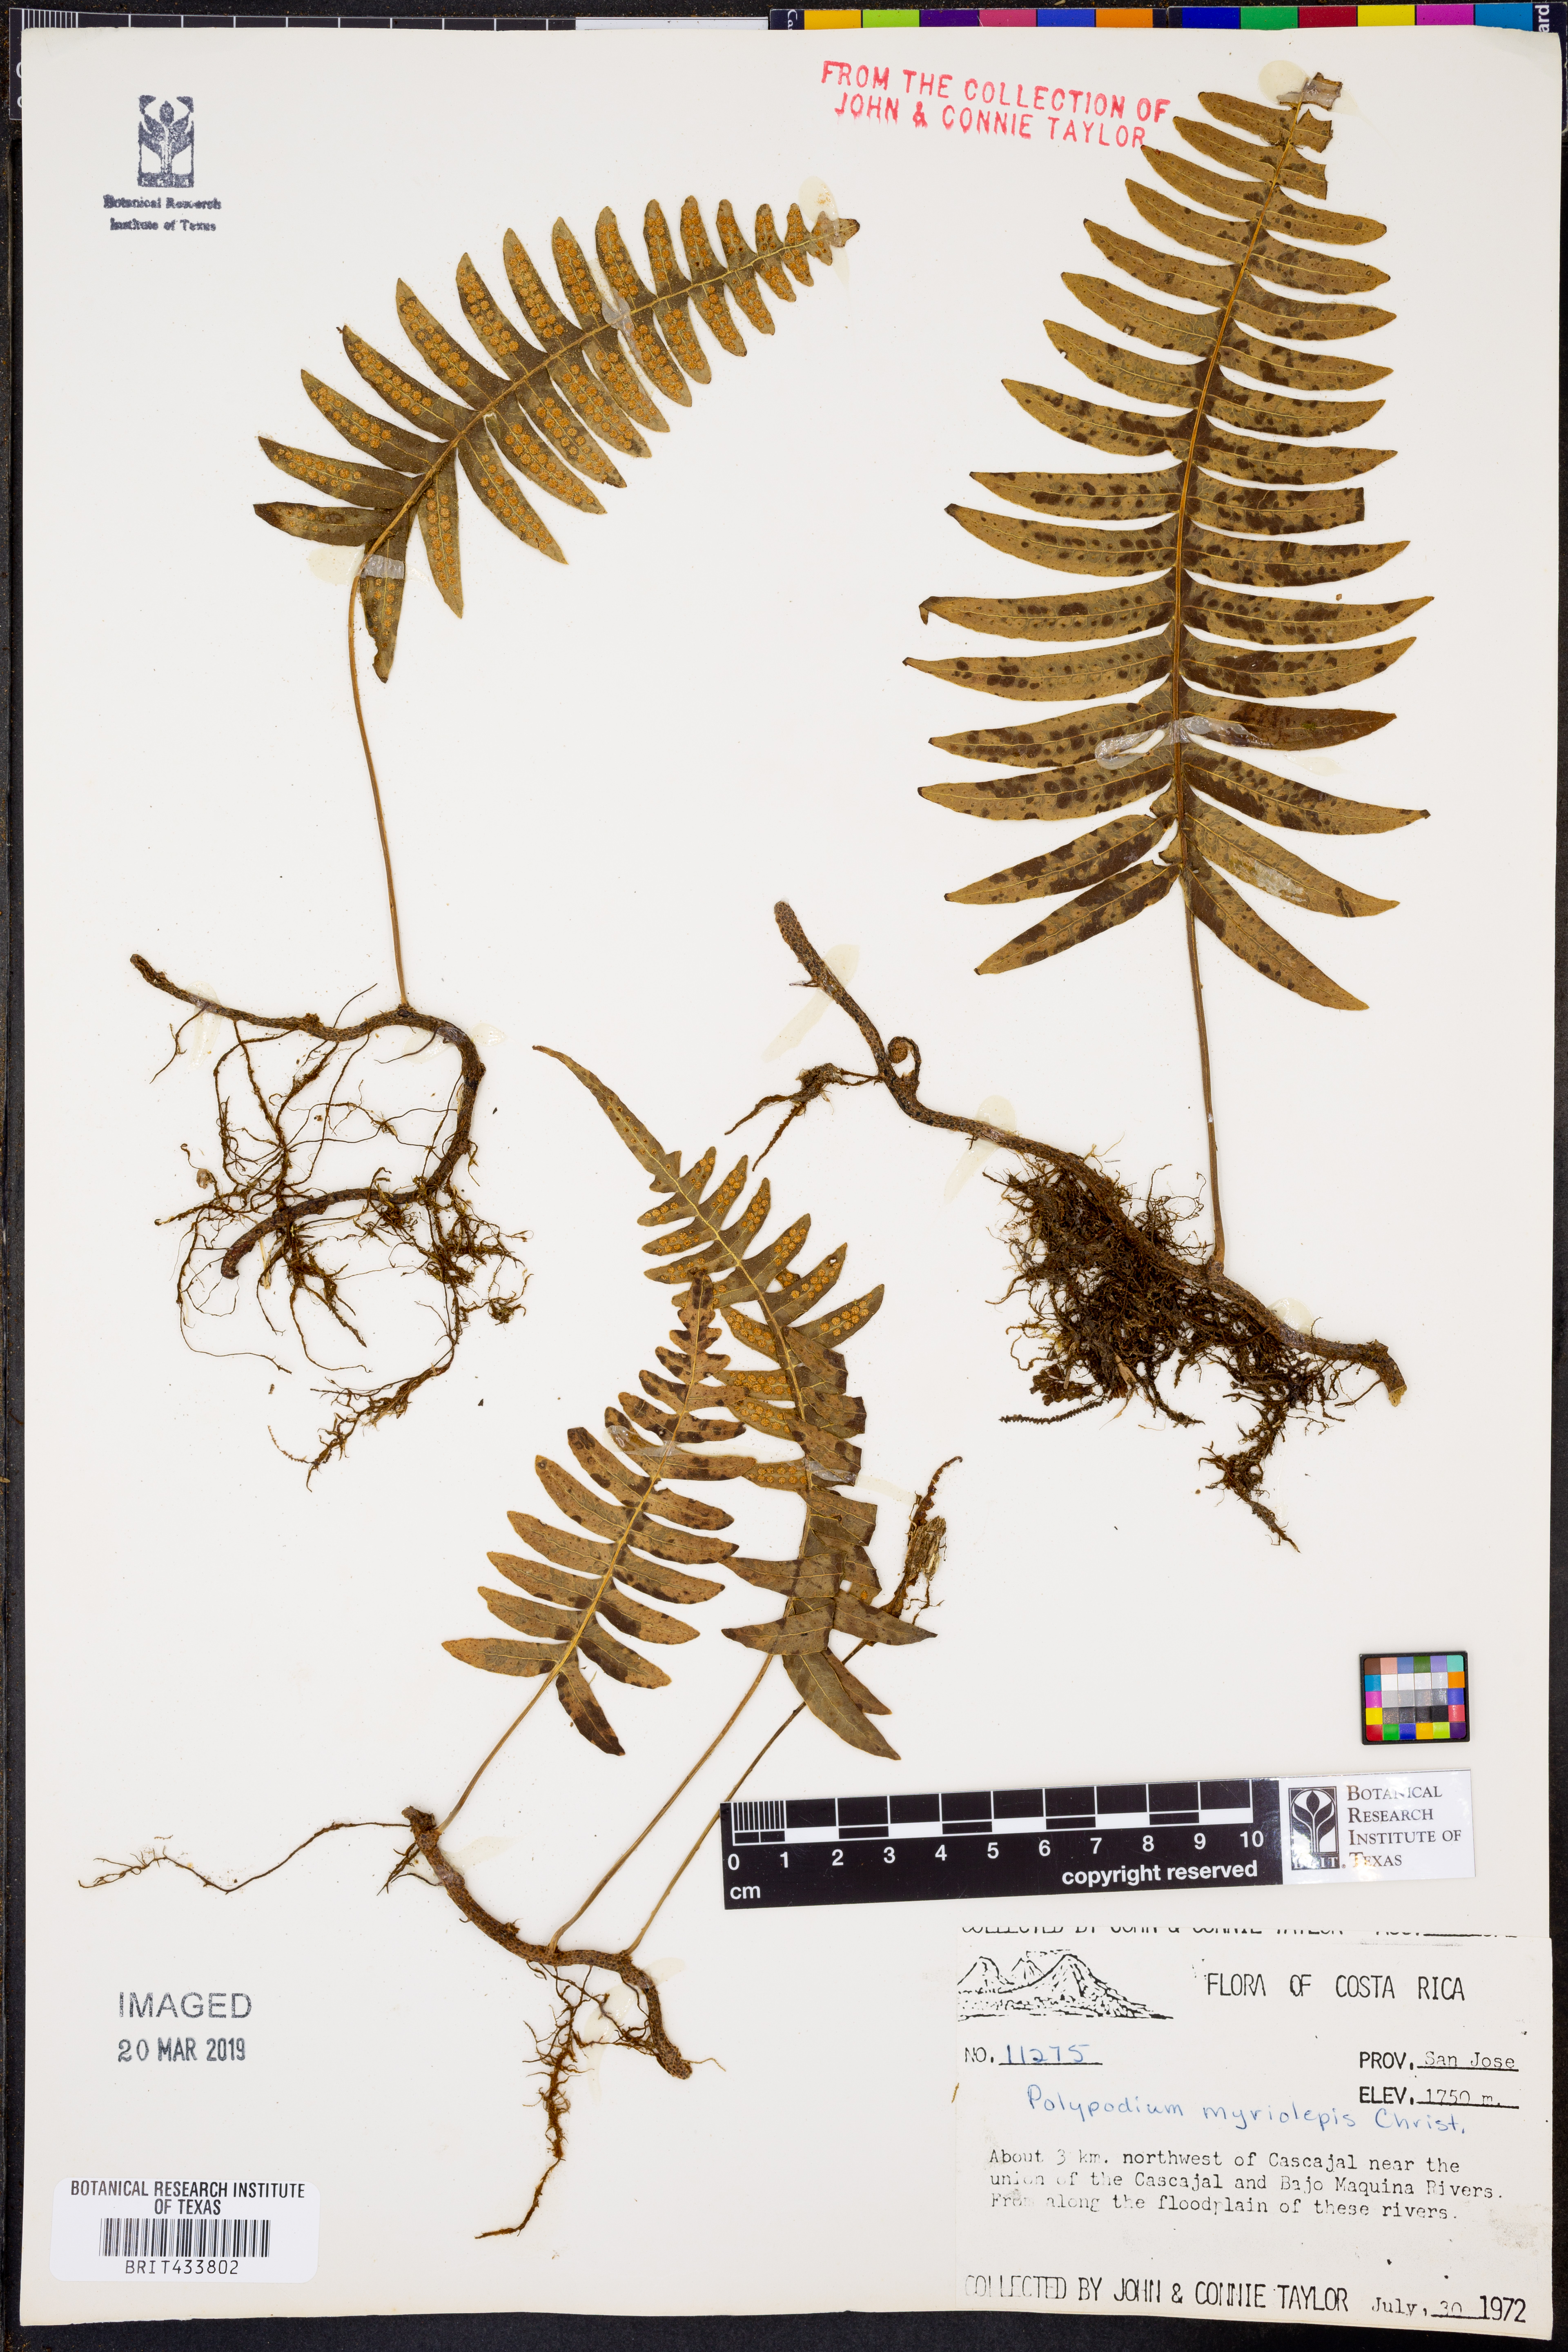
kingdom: Plantae
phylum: Tracheophyta
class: Polypodiopsida
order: Polypodiales
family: Polypodiaceae
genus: Pleopeltis
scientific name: Pleopeltis myriolepis
